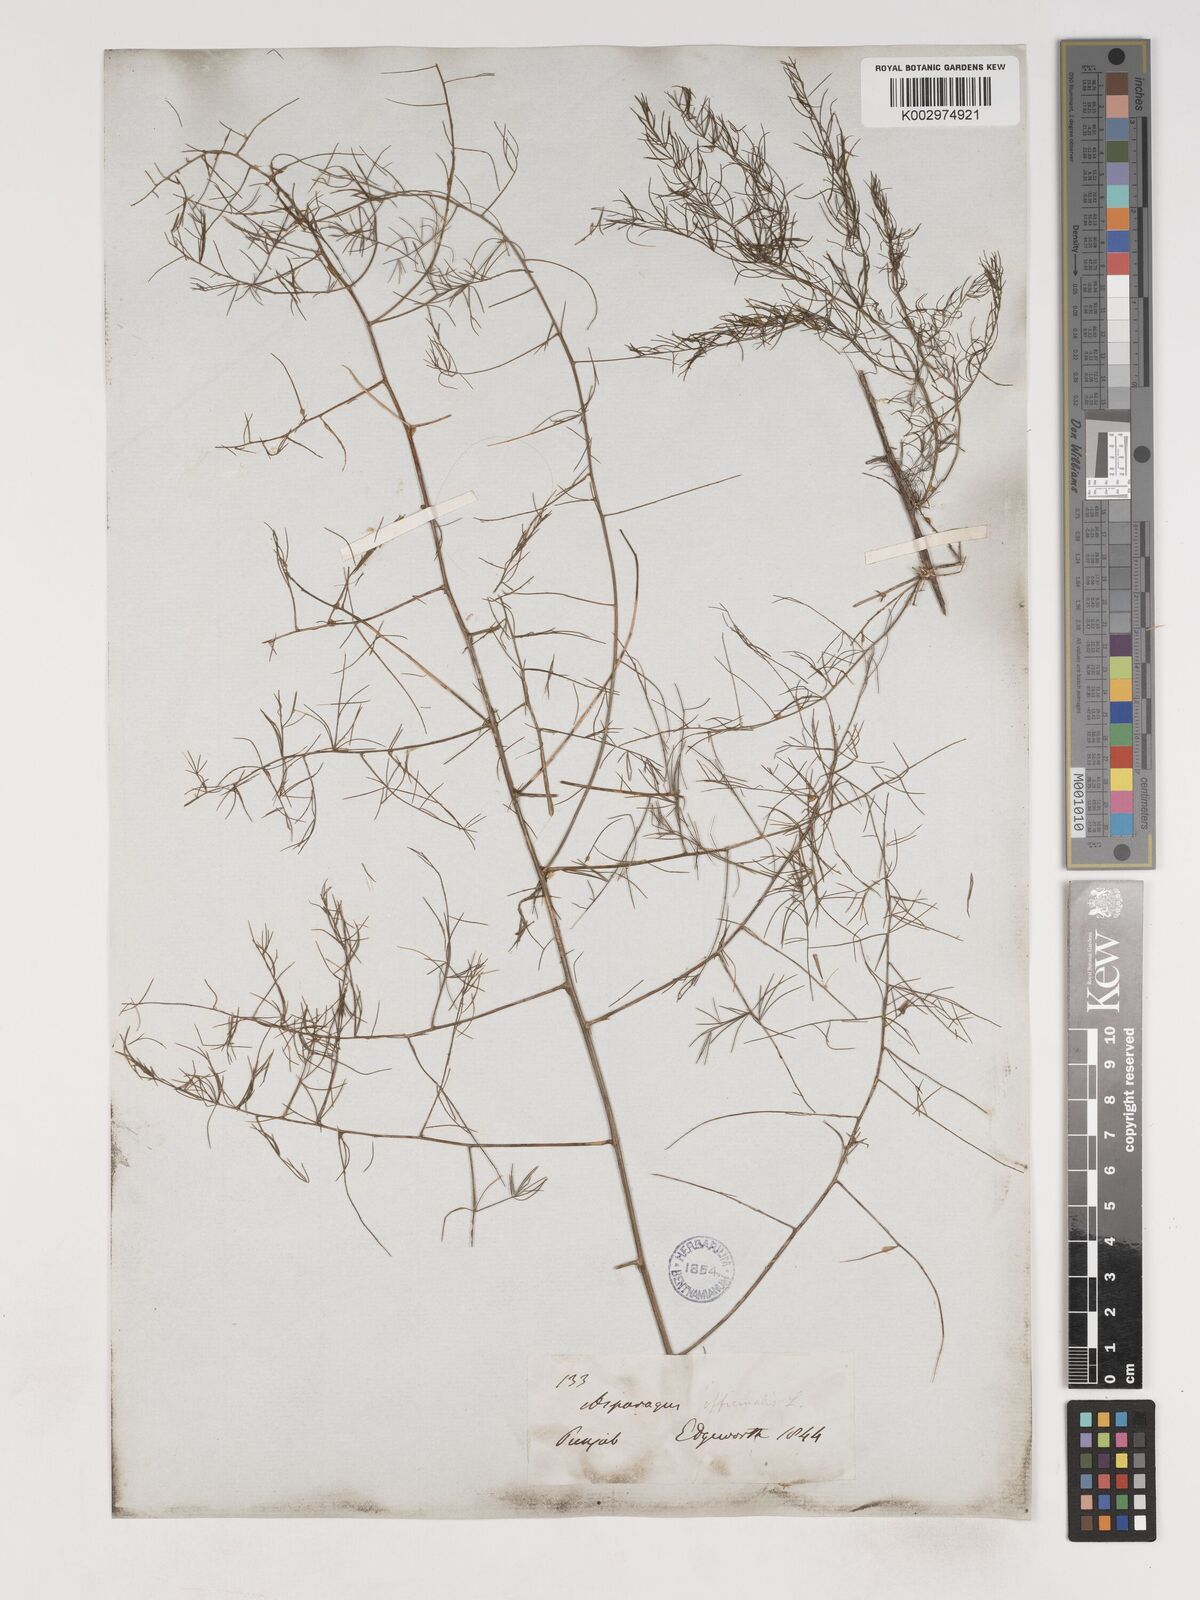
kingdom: Plantae
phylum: Tracheophyta
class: Liliopsida
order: Asparagales
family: Asparagaceae
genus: Asparagus
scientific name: Asparagus officinalis
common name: Garden asparagus
